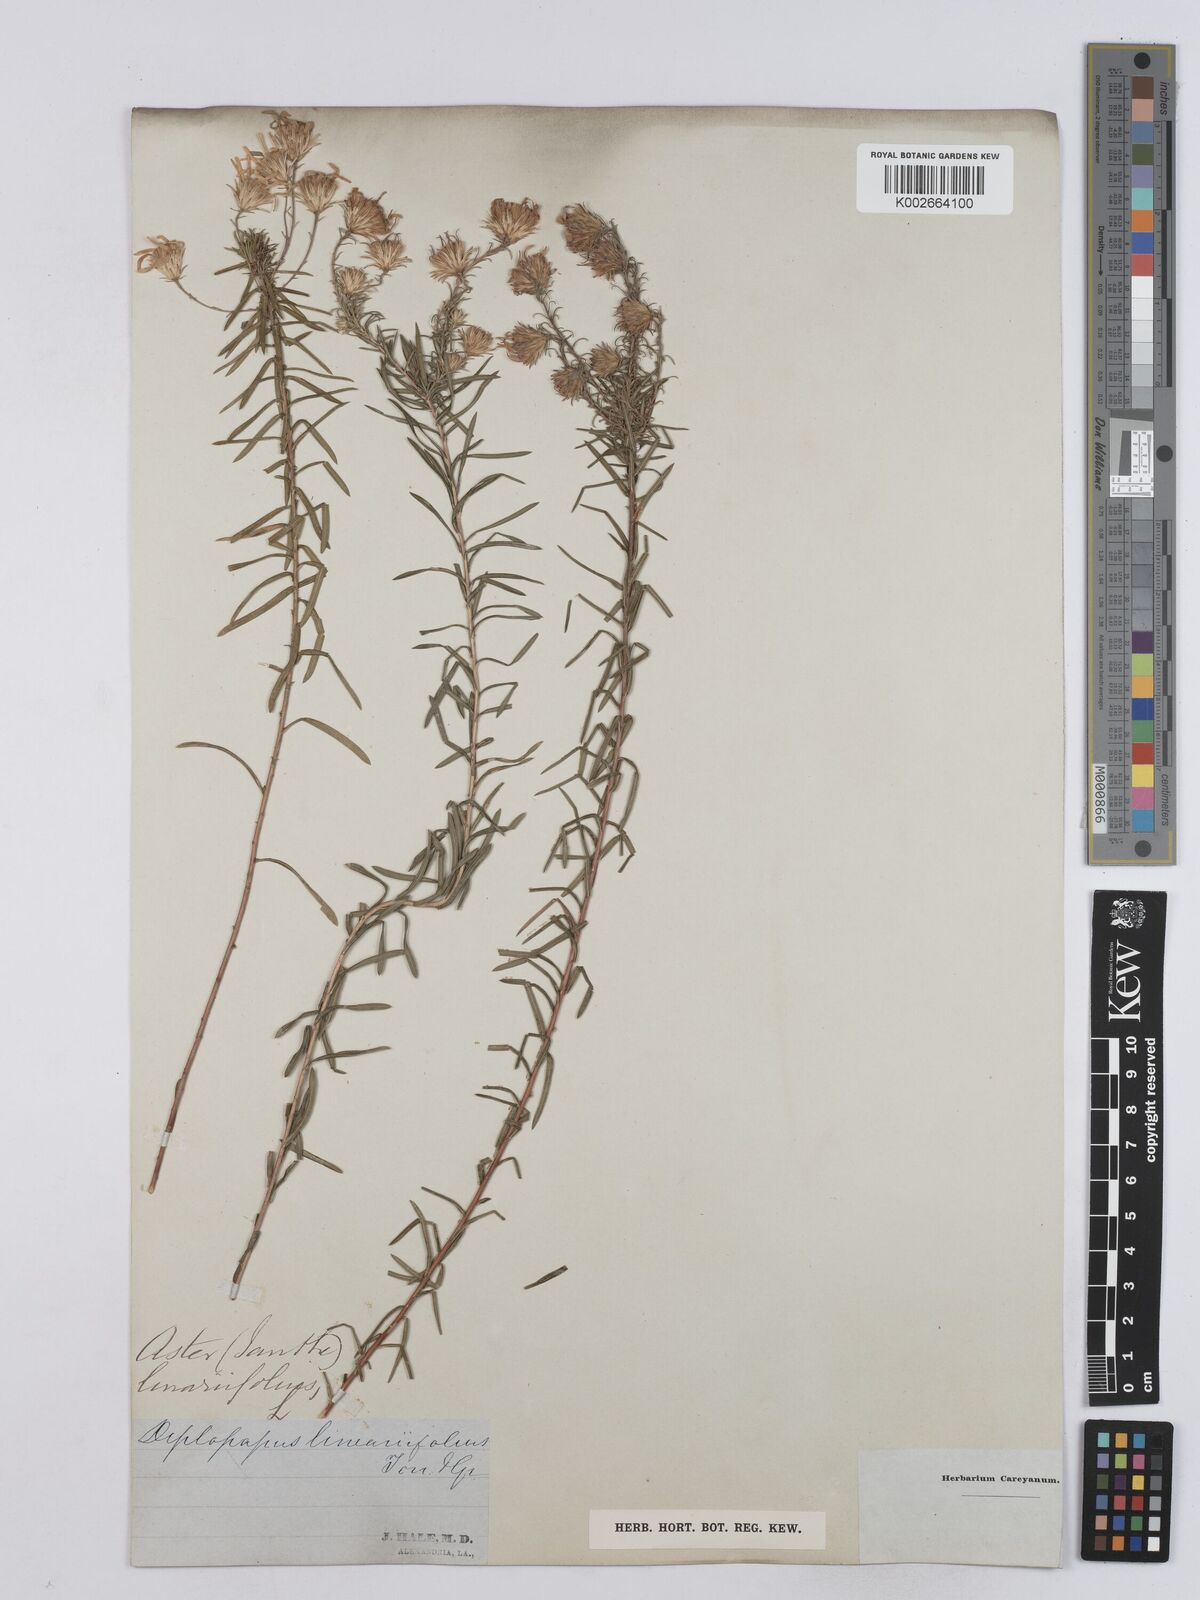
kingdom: Plantae
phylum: Tracheophyta
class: Magnoliopsida
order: Asterales
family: Asteraceae
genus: Ionactis
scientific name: Ionactis linariifolia
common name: Flax-leaf aster
